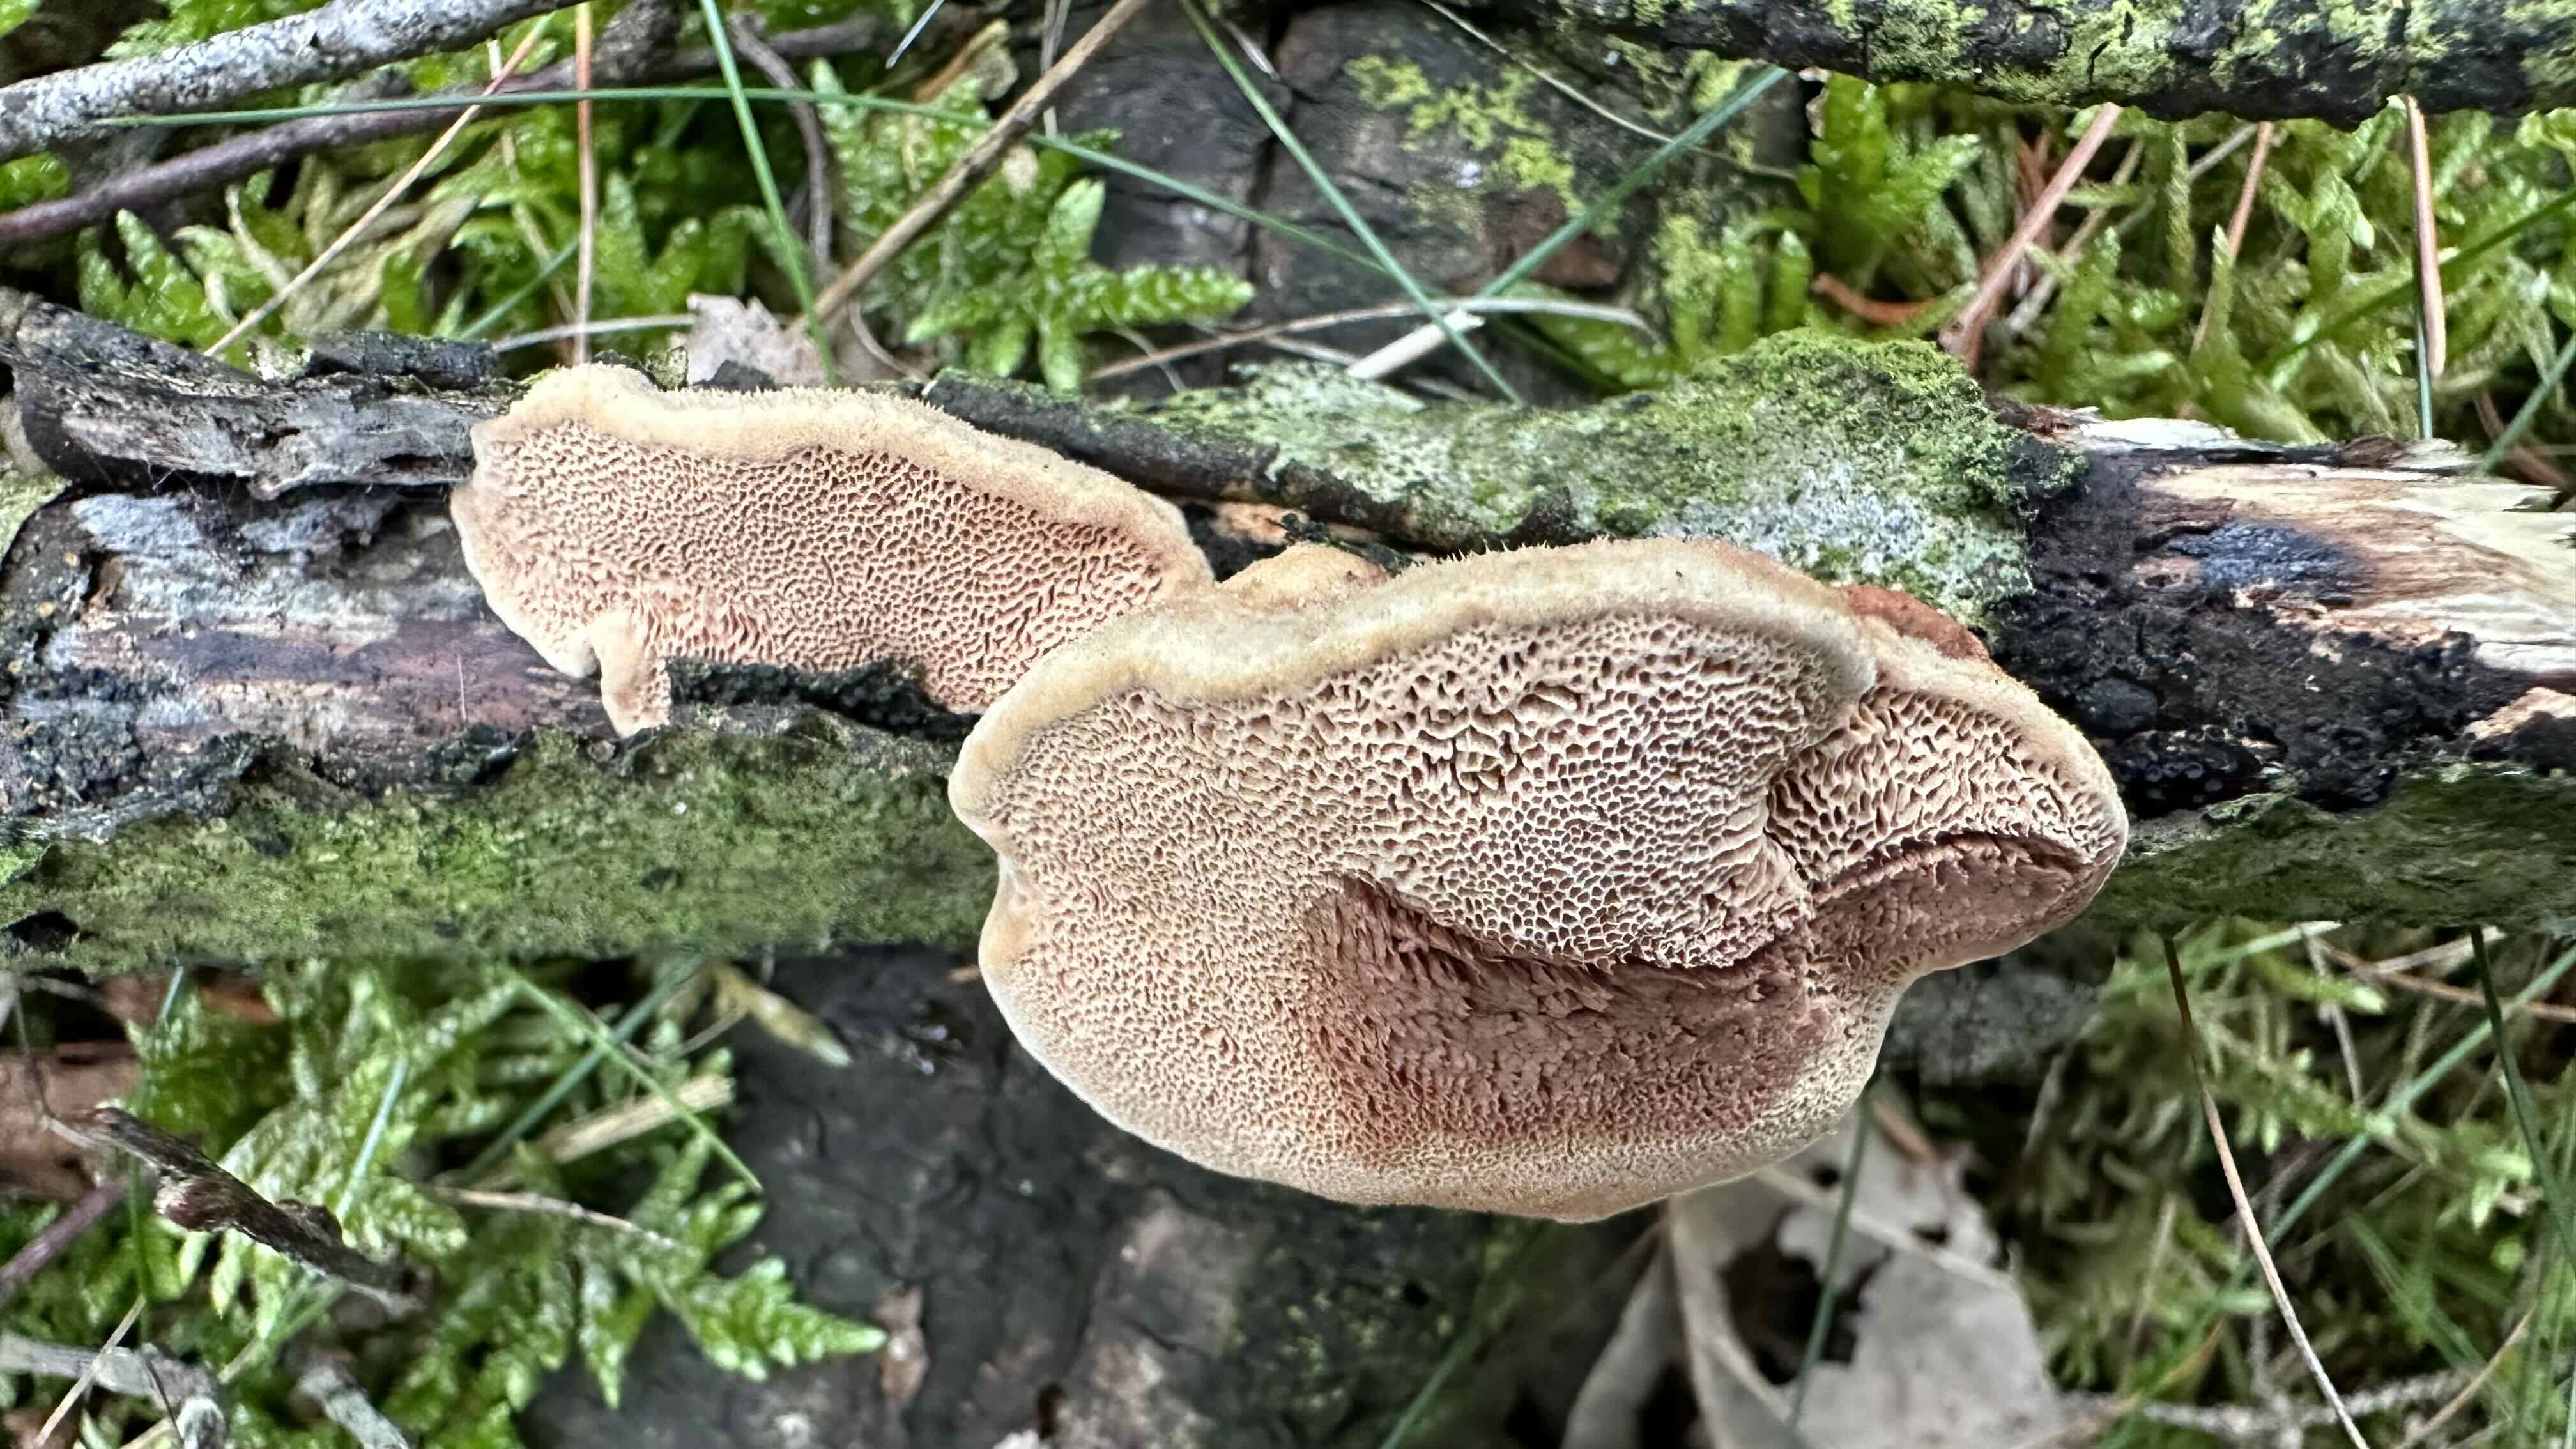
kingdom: Fungi
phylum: Basidiomycota
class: Agaricomycetes
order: Polyporales
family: Phanerochaetaceae
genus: Hapalopilus
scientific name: Hapalopilus rutilans
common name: rødlig okkerporesvamp
